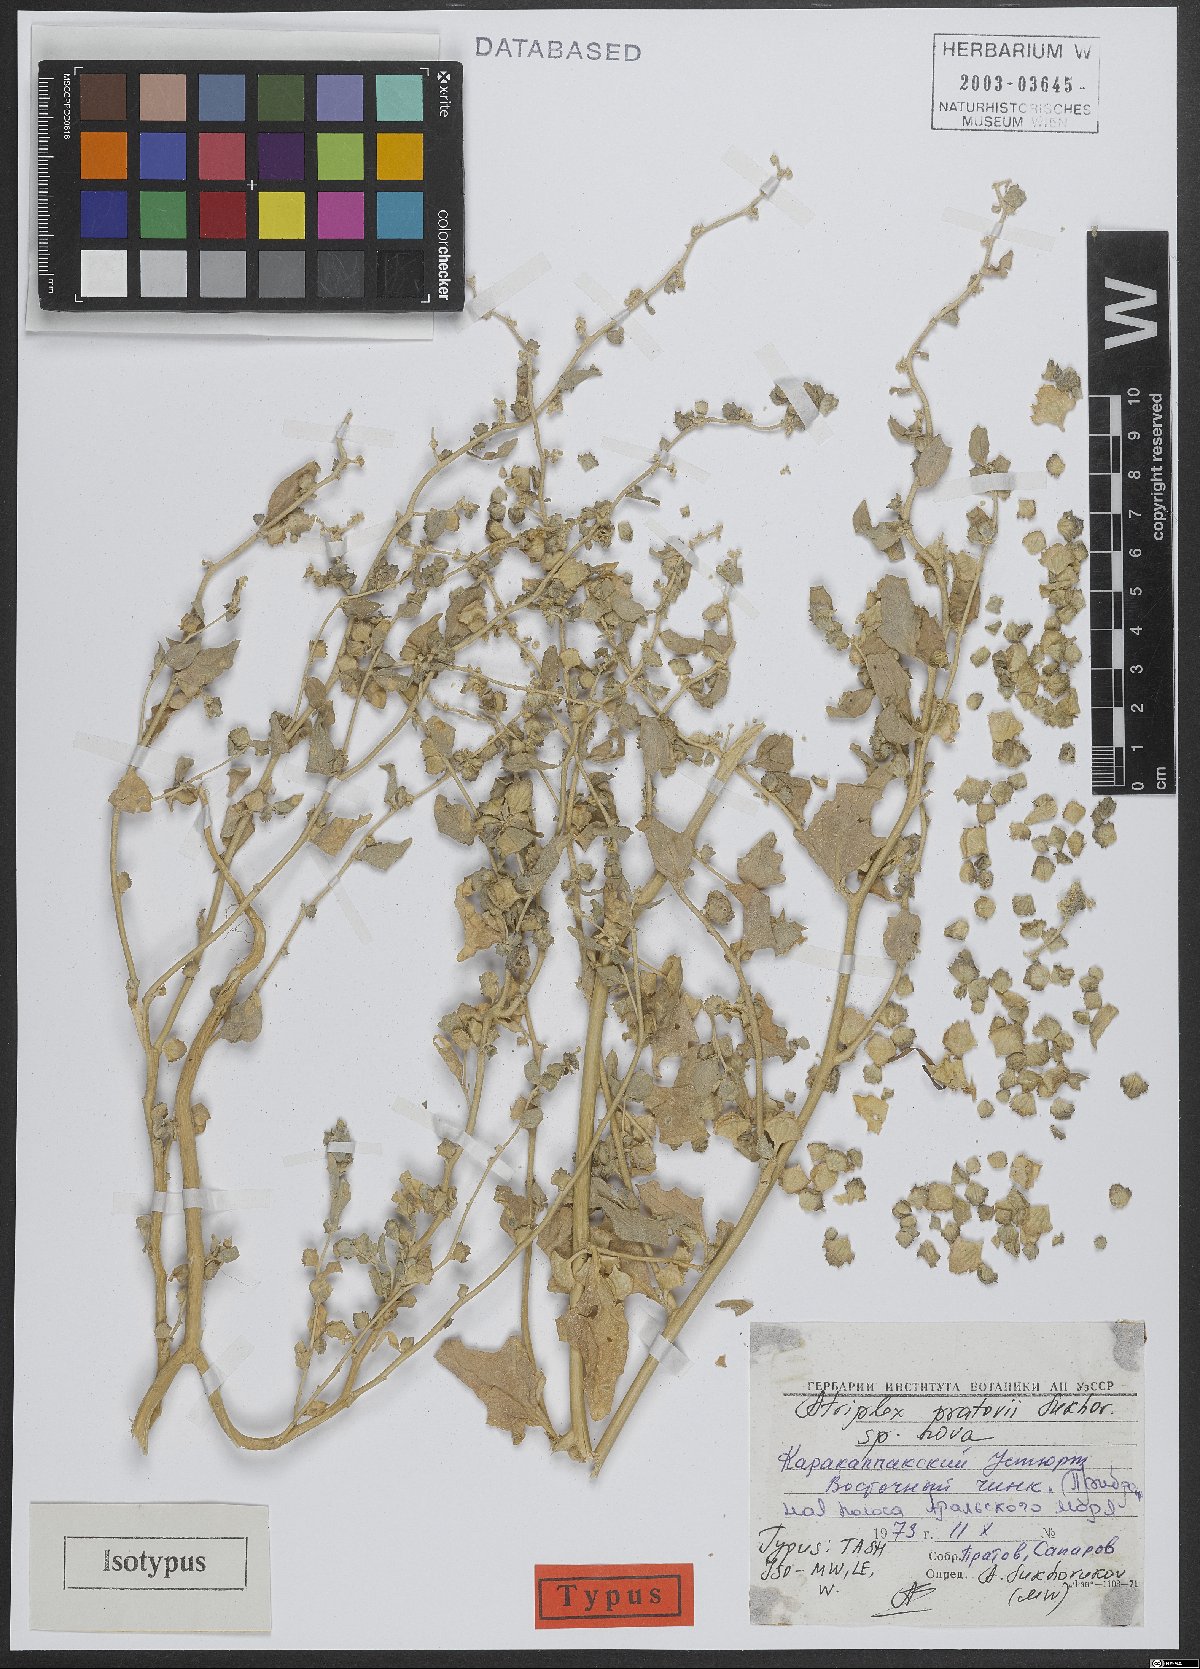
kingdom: Plantae
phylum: Tracheophyta
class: Magnoliopsida
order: Caryophyllales
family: Amaranthaceae
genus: Atriplex
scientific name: Atriplex pratovii
